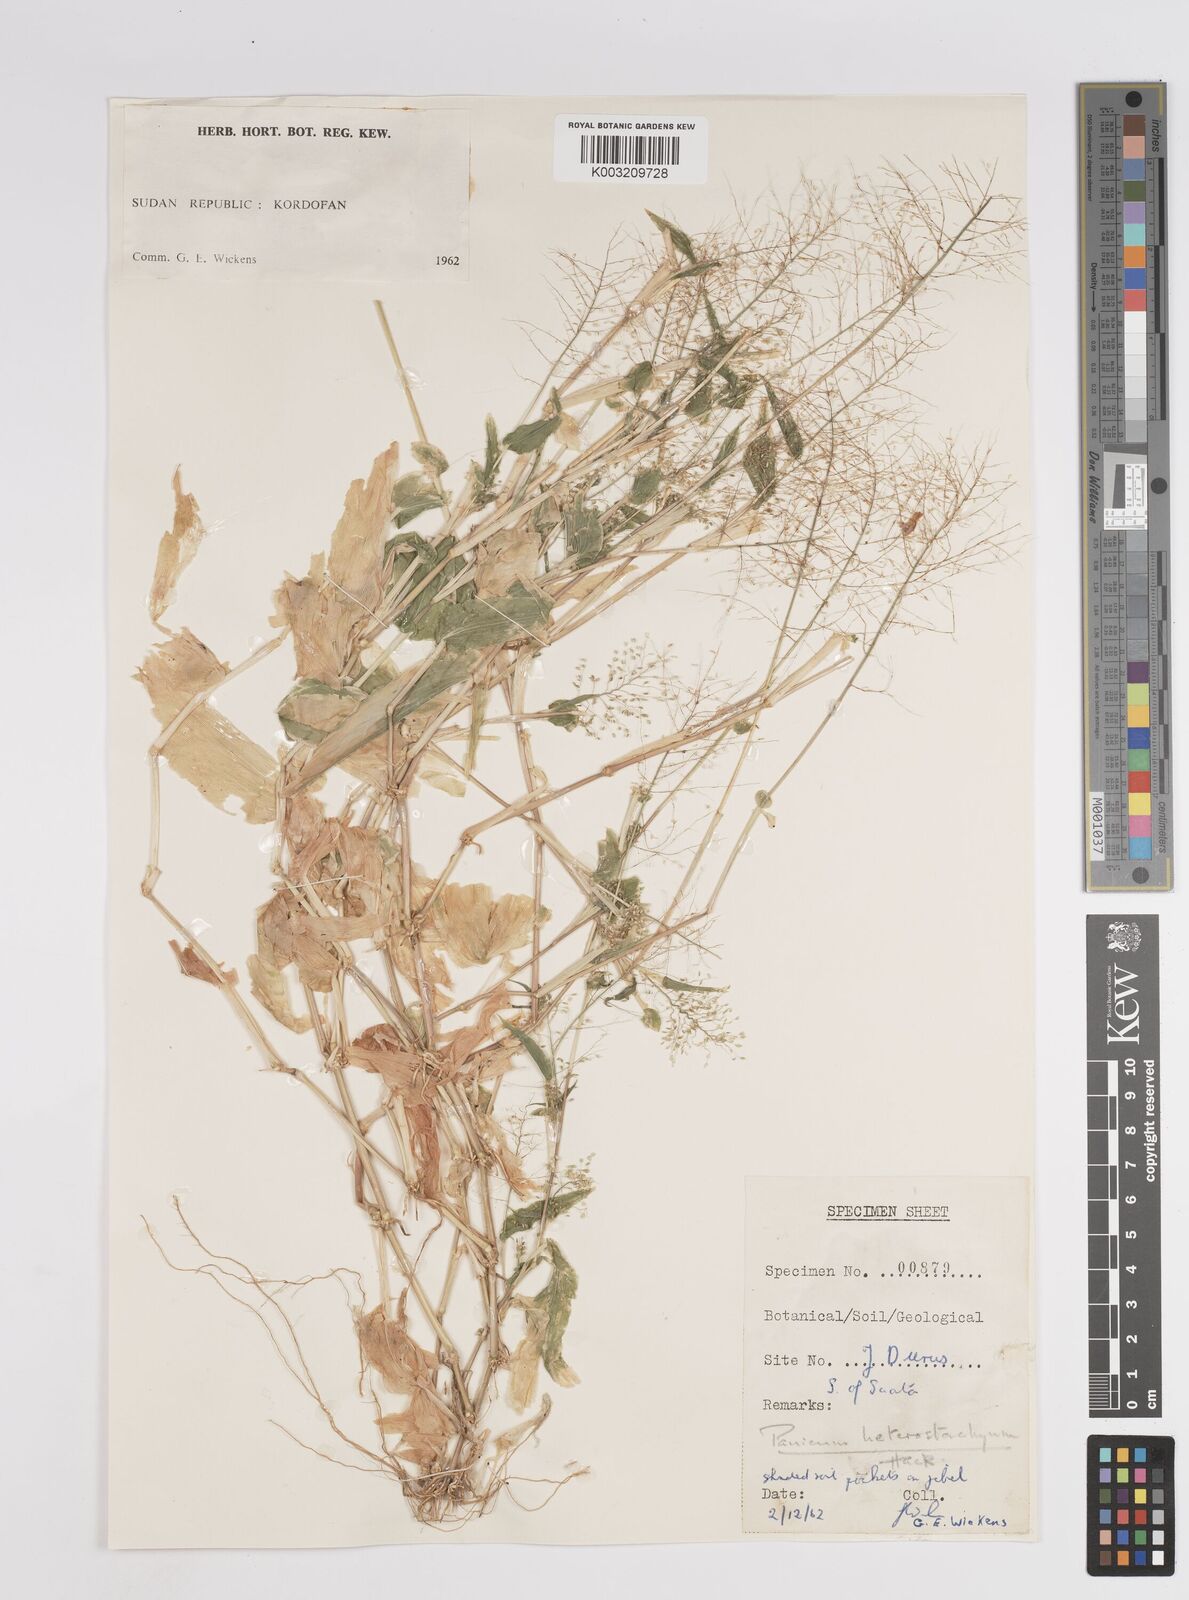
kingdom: Plantae
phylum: Tracheophyta
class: Liliopsida
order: Poales
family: Poaceae
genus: Panicum
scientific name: Panicum hirtum
